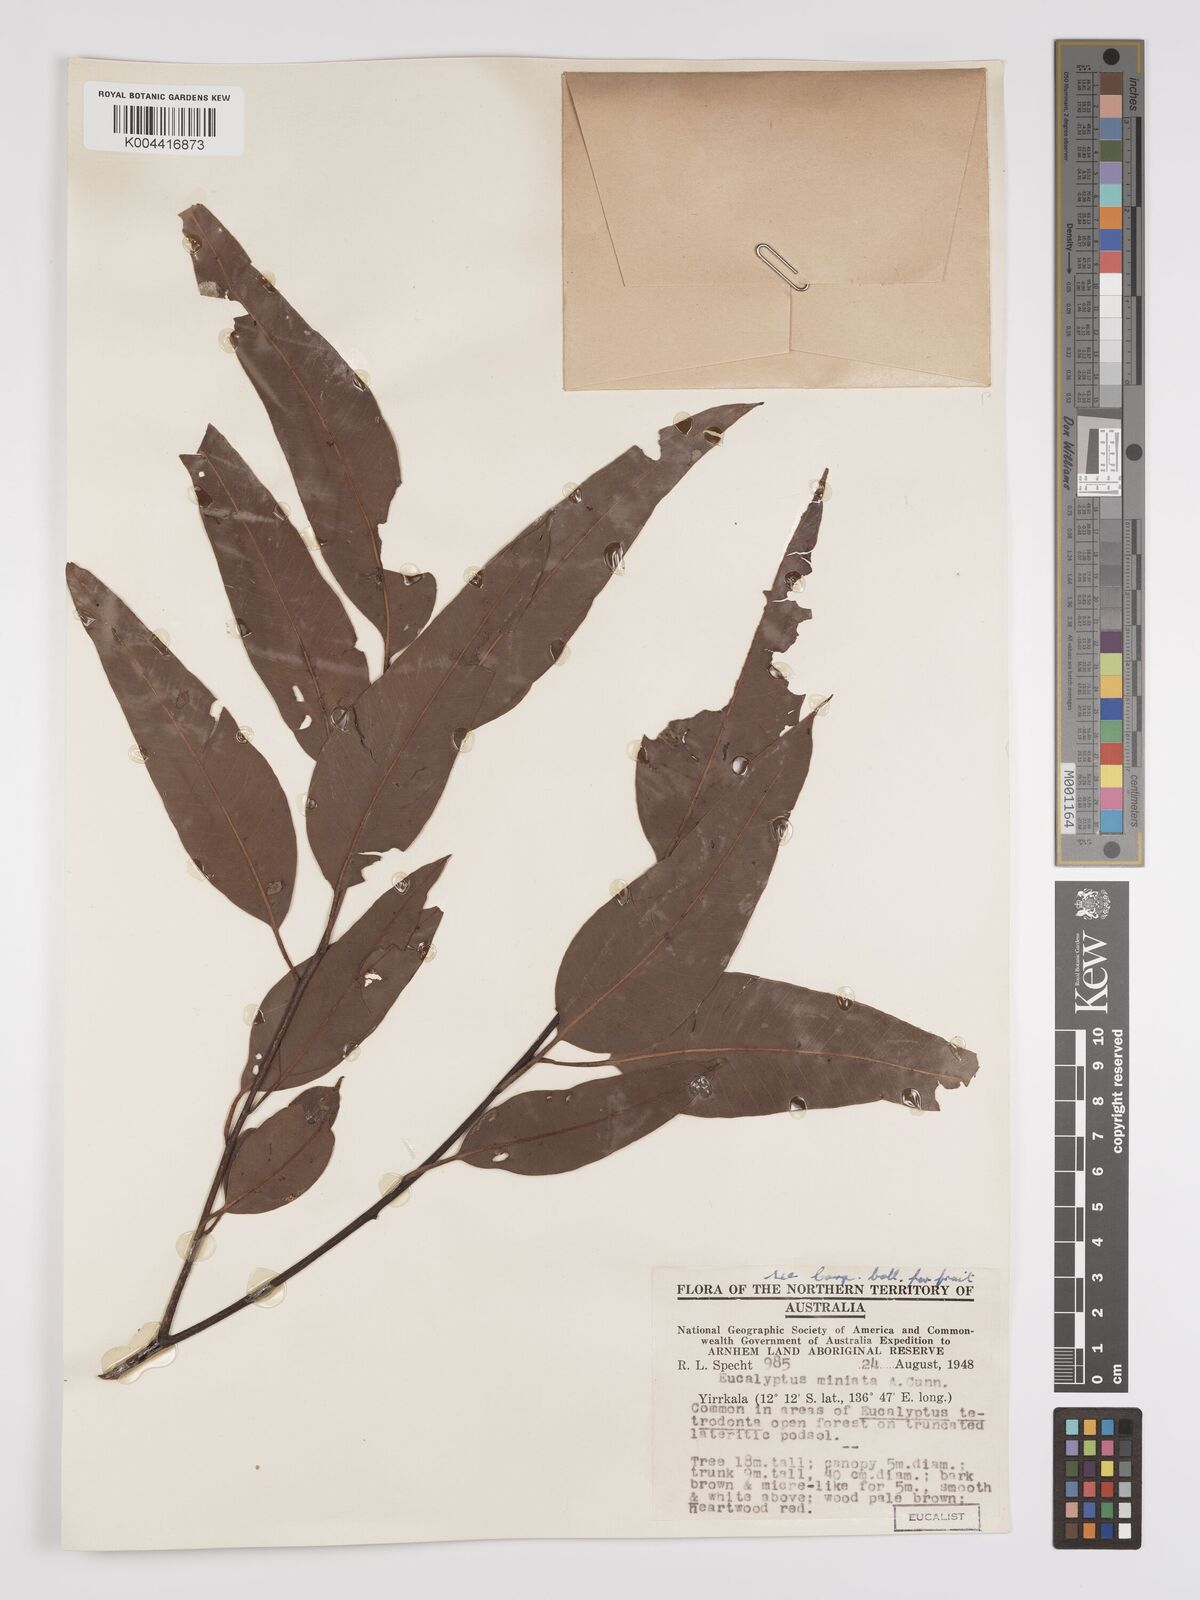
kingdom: Plantae
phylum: Tracheophyta
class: Magnoliopsida
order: Myrtales
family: Myrtaceae
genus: Eucalyptus
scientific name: Eucalyptus miniata
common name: Darwin-woollybutt
